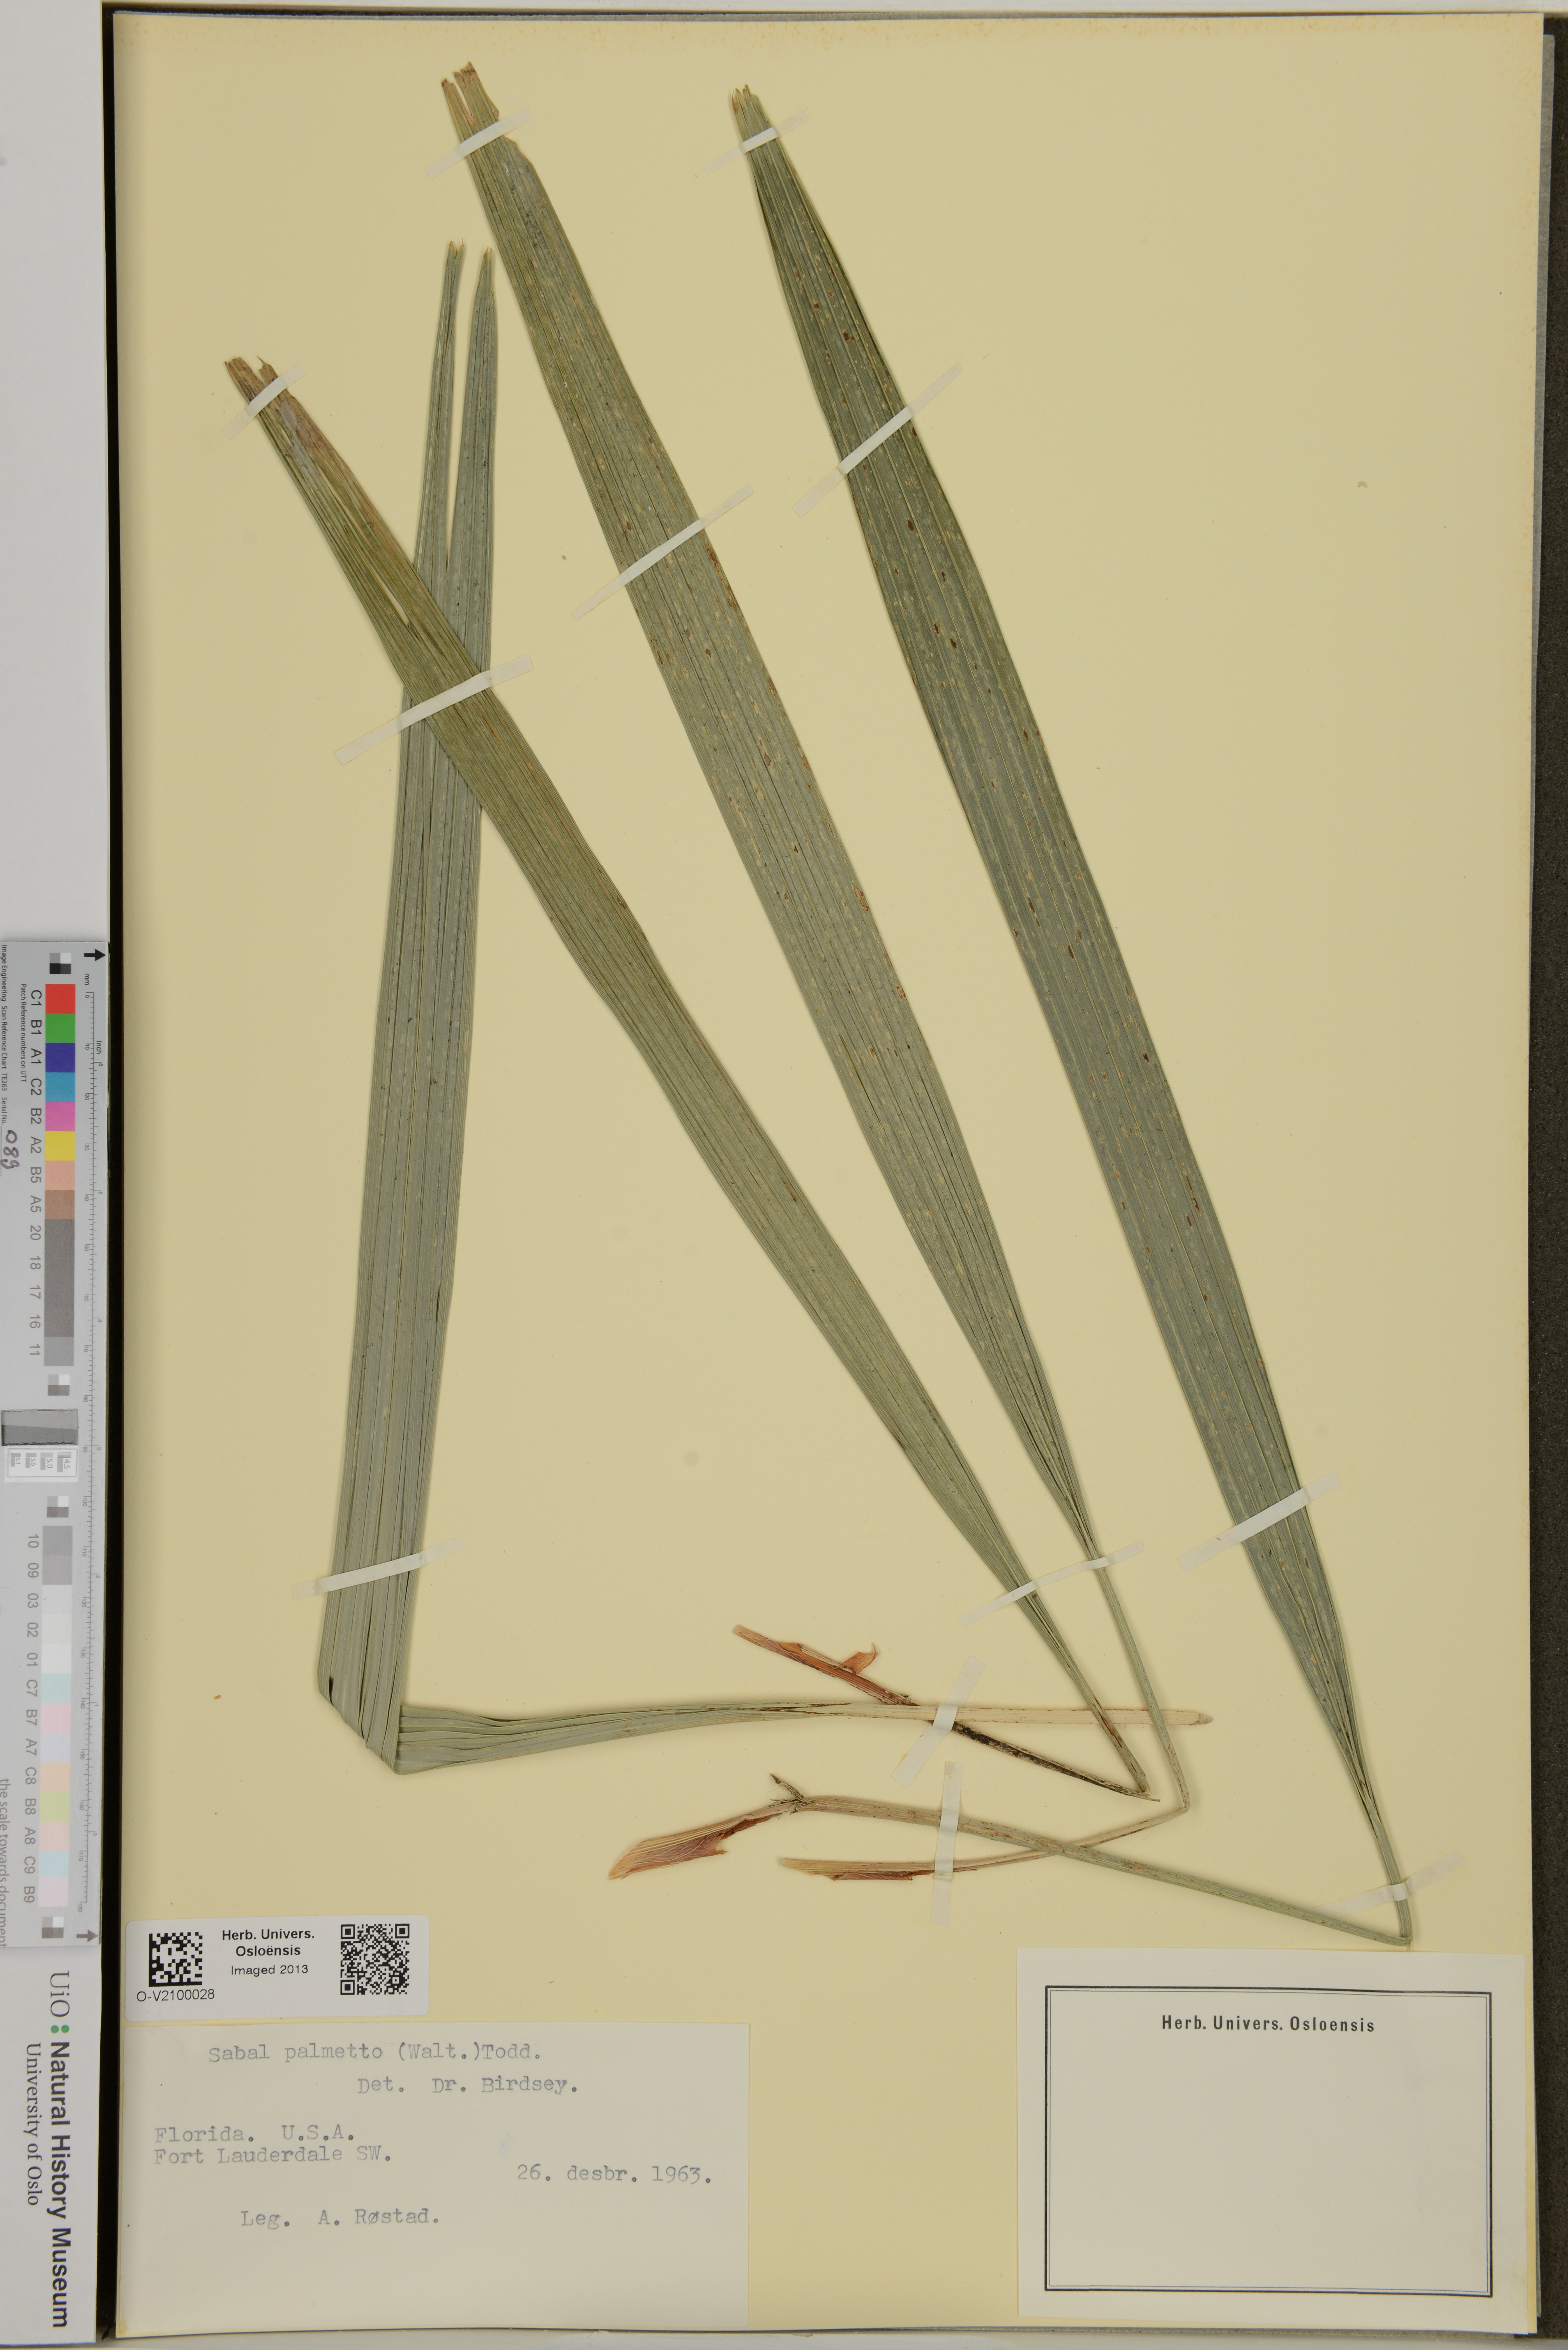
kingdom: Plantae
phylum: Tracheophyta
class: Liliopsida
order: Arecales
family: Arecaceae
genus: Sabal
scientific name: Sabal palmetto
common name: Blue palmetto
